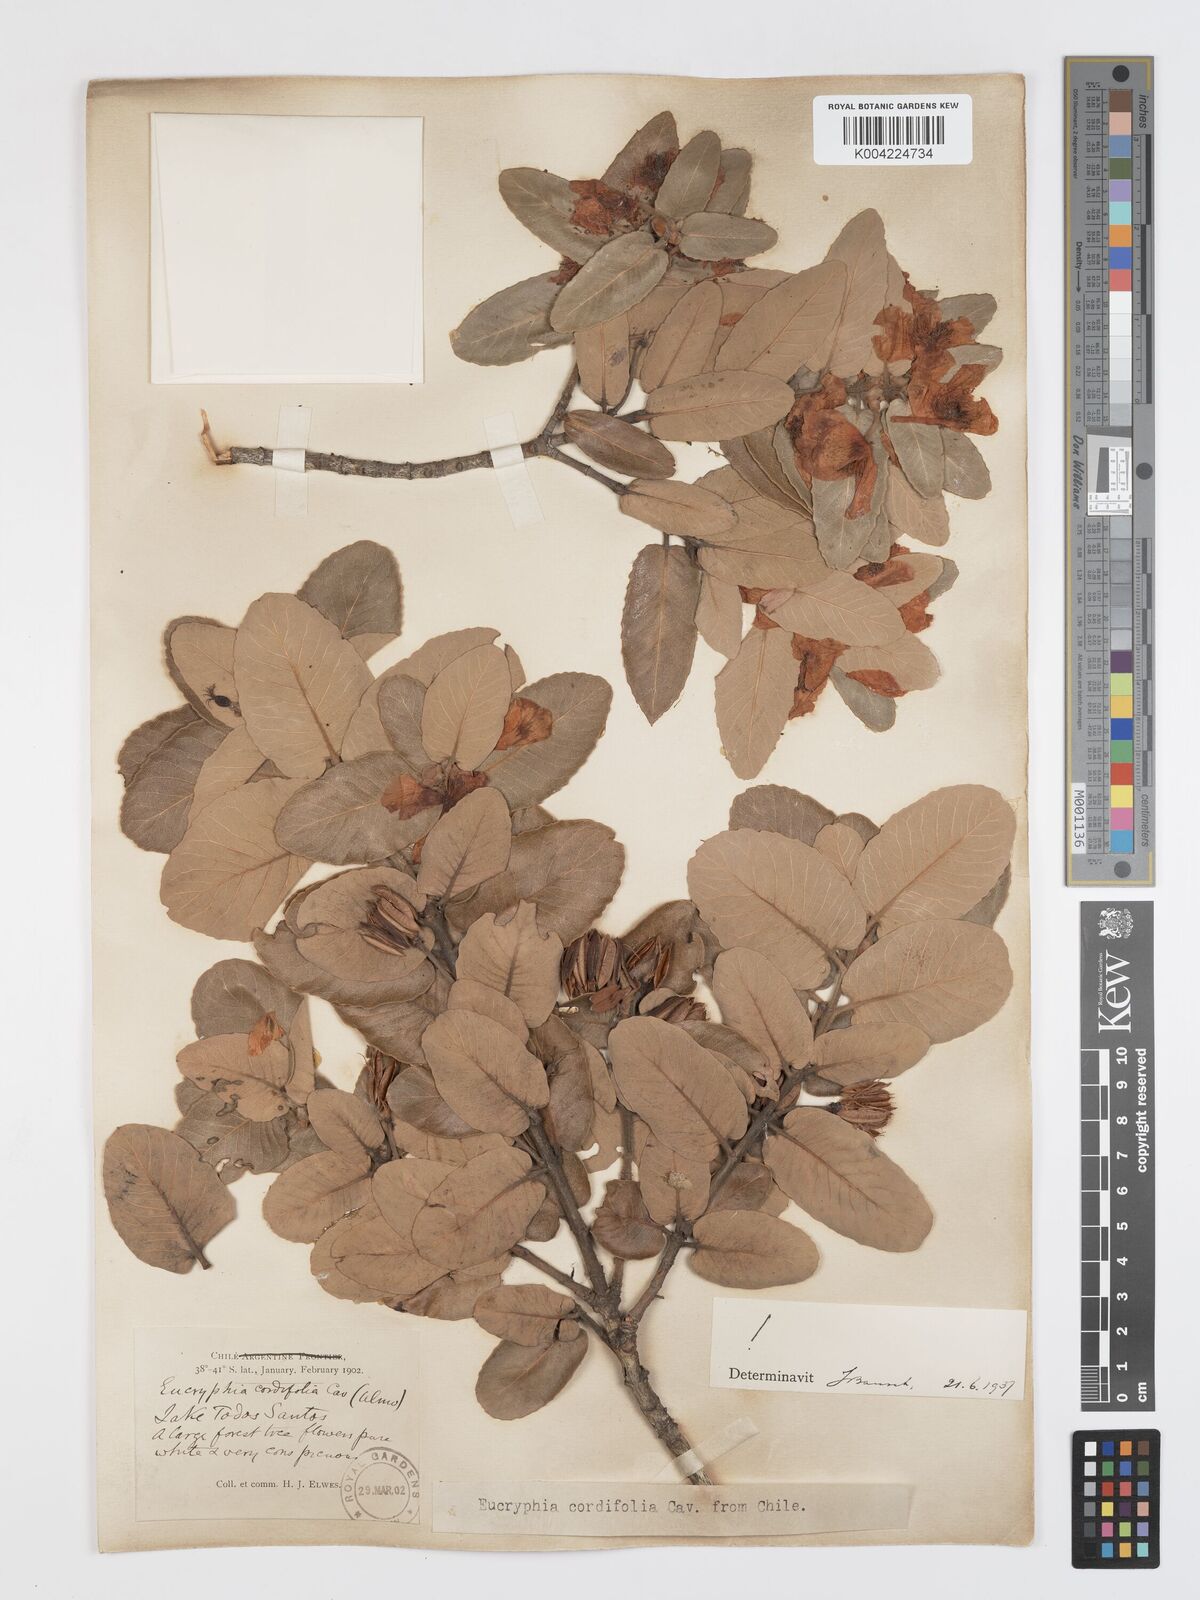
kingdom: Plantae
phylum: Tracheophyta
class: Magnoliopsida
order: Oxalidales
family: Cunoniaceae
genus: Eucryphia
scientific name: Eucryphia cordifolia
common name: Ulmo
